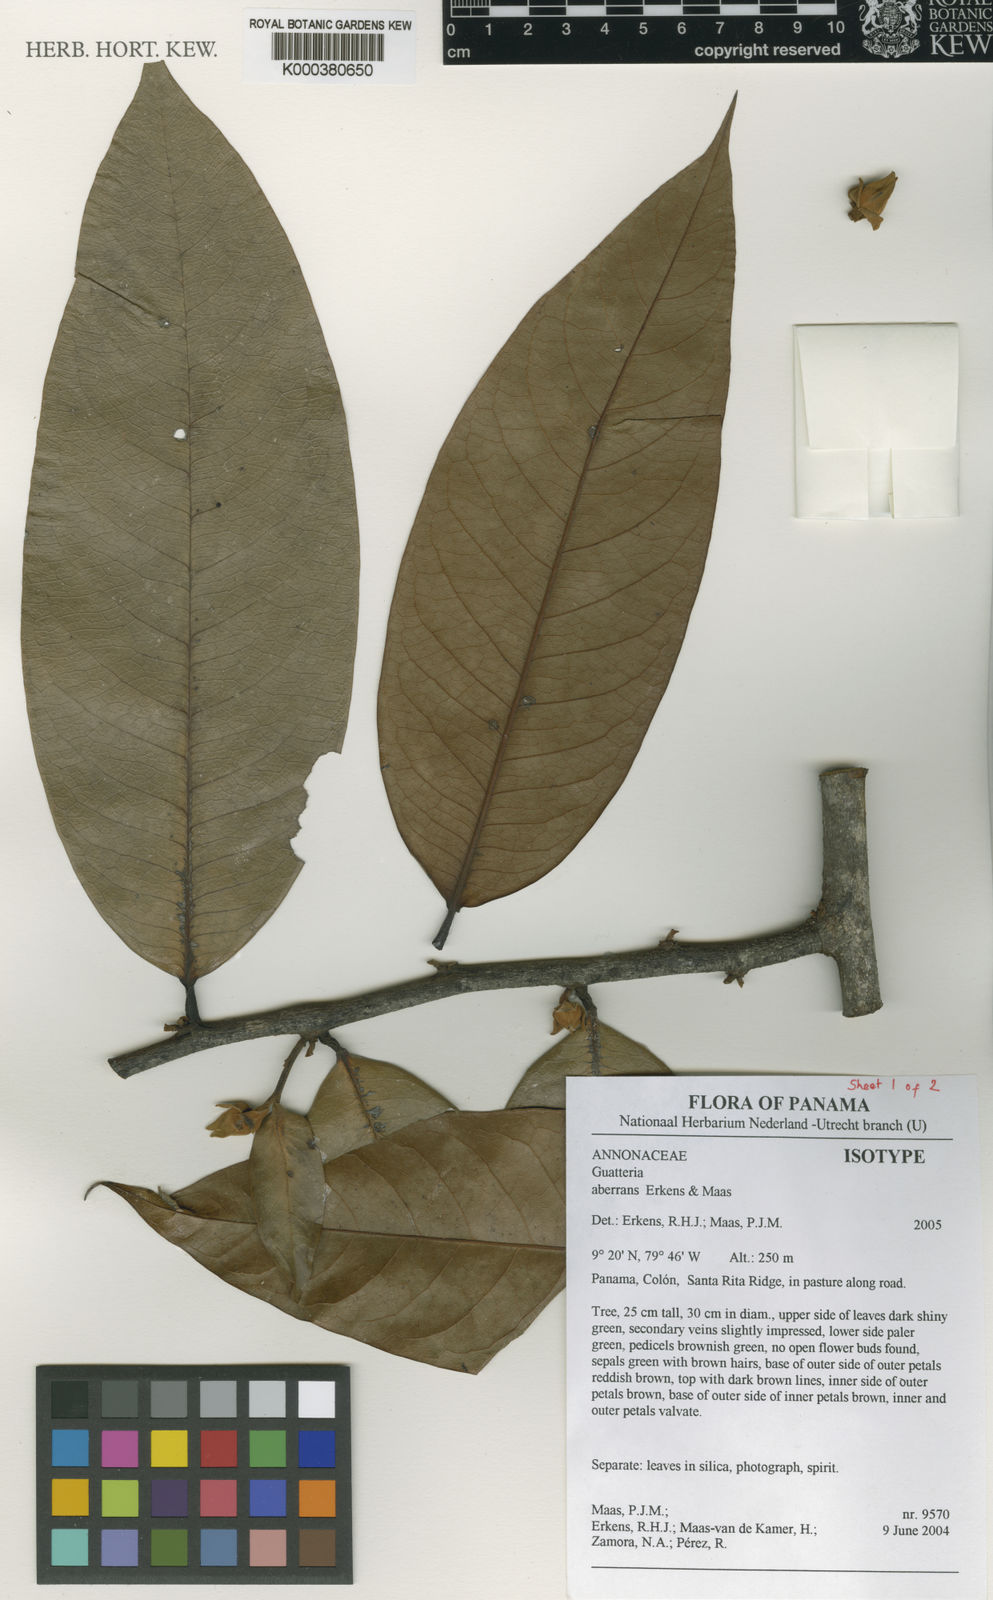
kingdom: Plantae
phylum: Tracheophyta
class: Magnoliopsida
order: Magnoliales
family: Annonaceae
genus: Guatteria
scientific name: Guatteria aberrans
